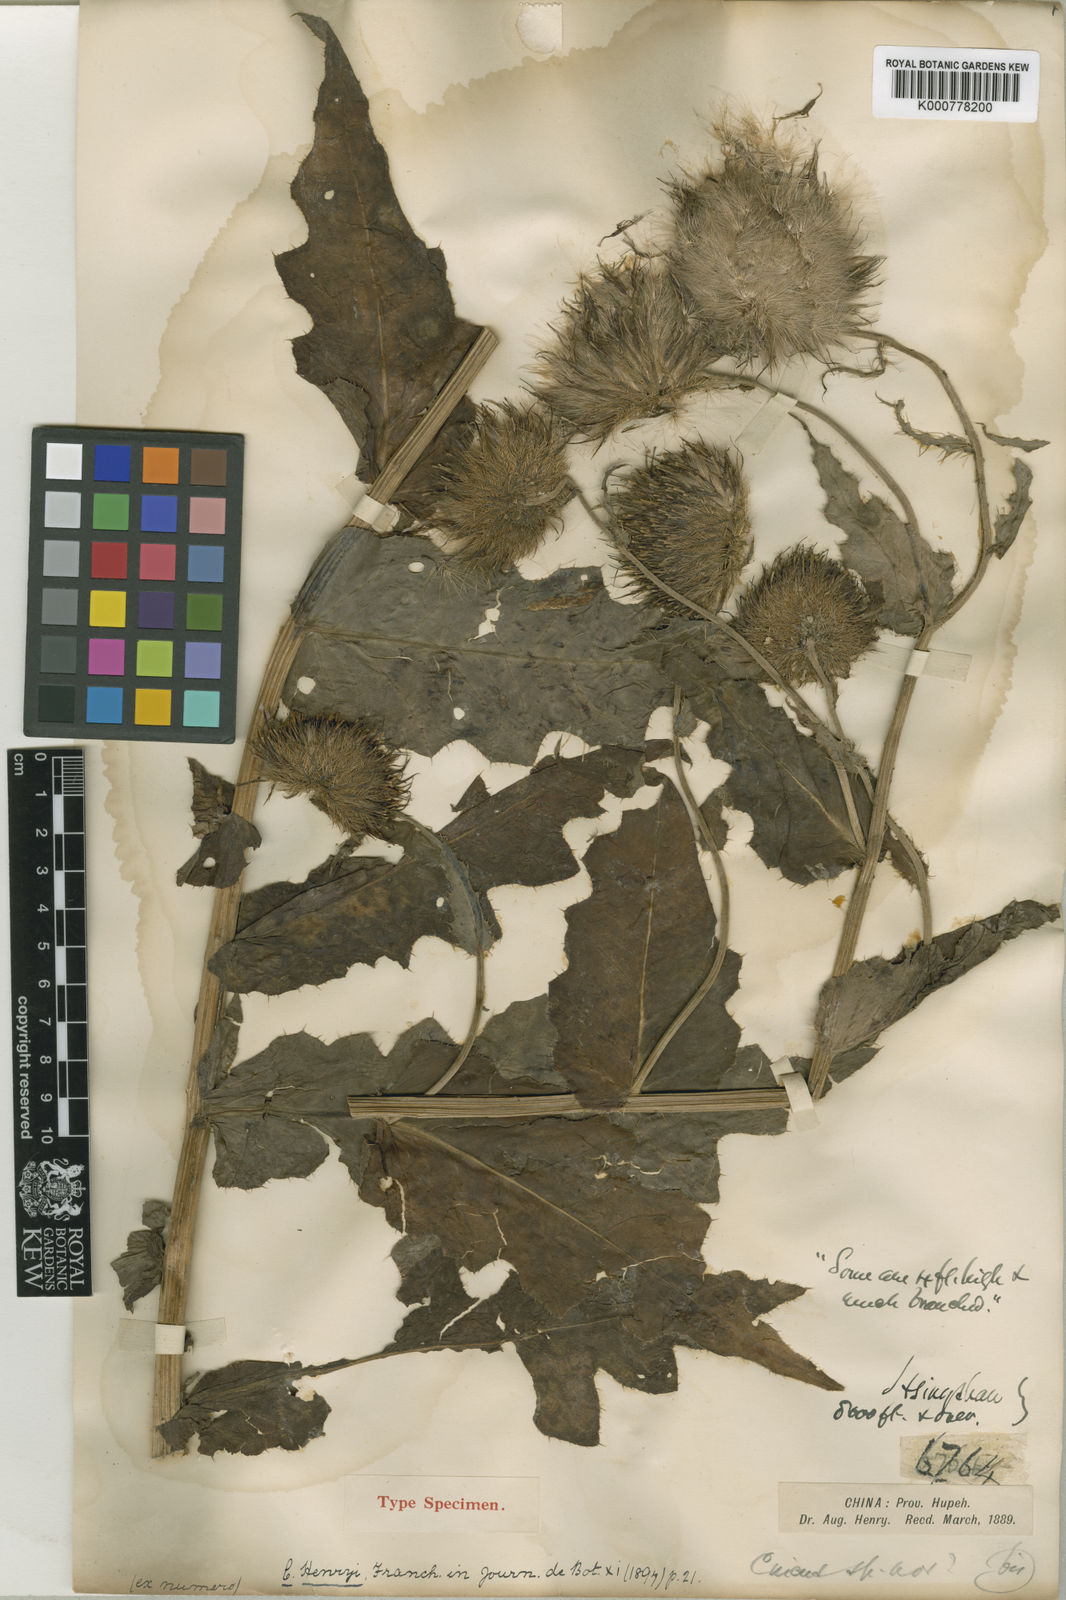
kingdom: Plantae
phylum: Tracheophyta
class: Magnoliopsida
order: Asterales
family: Asteraceae
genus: Cirsium
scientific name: Cirsium henryi
